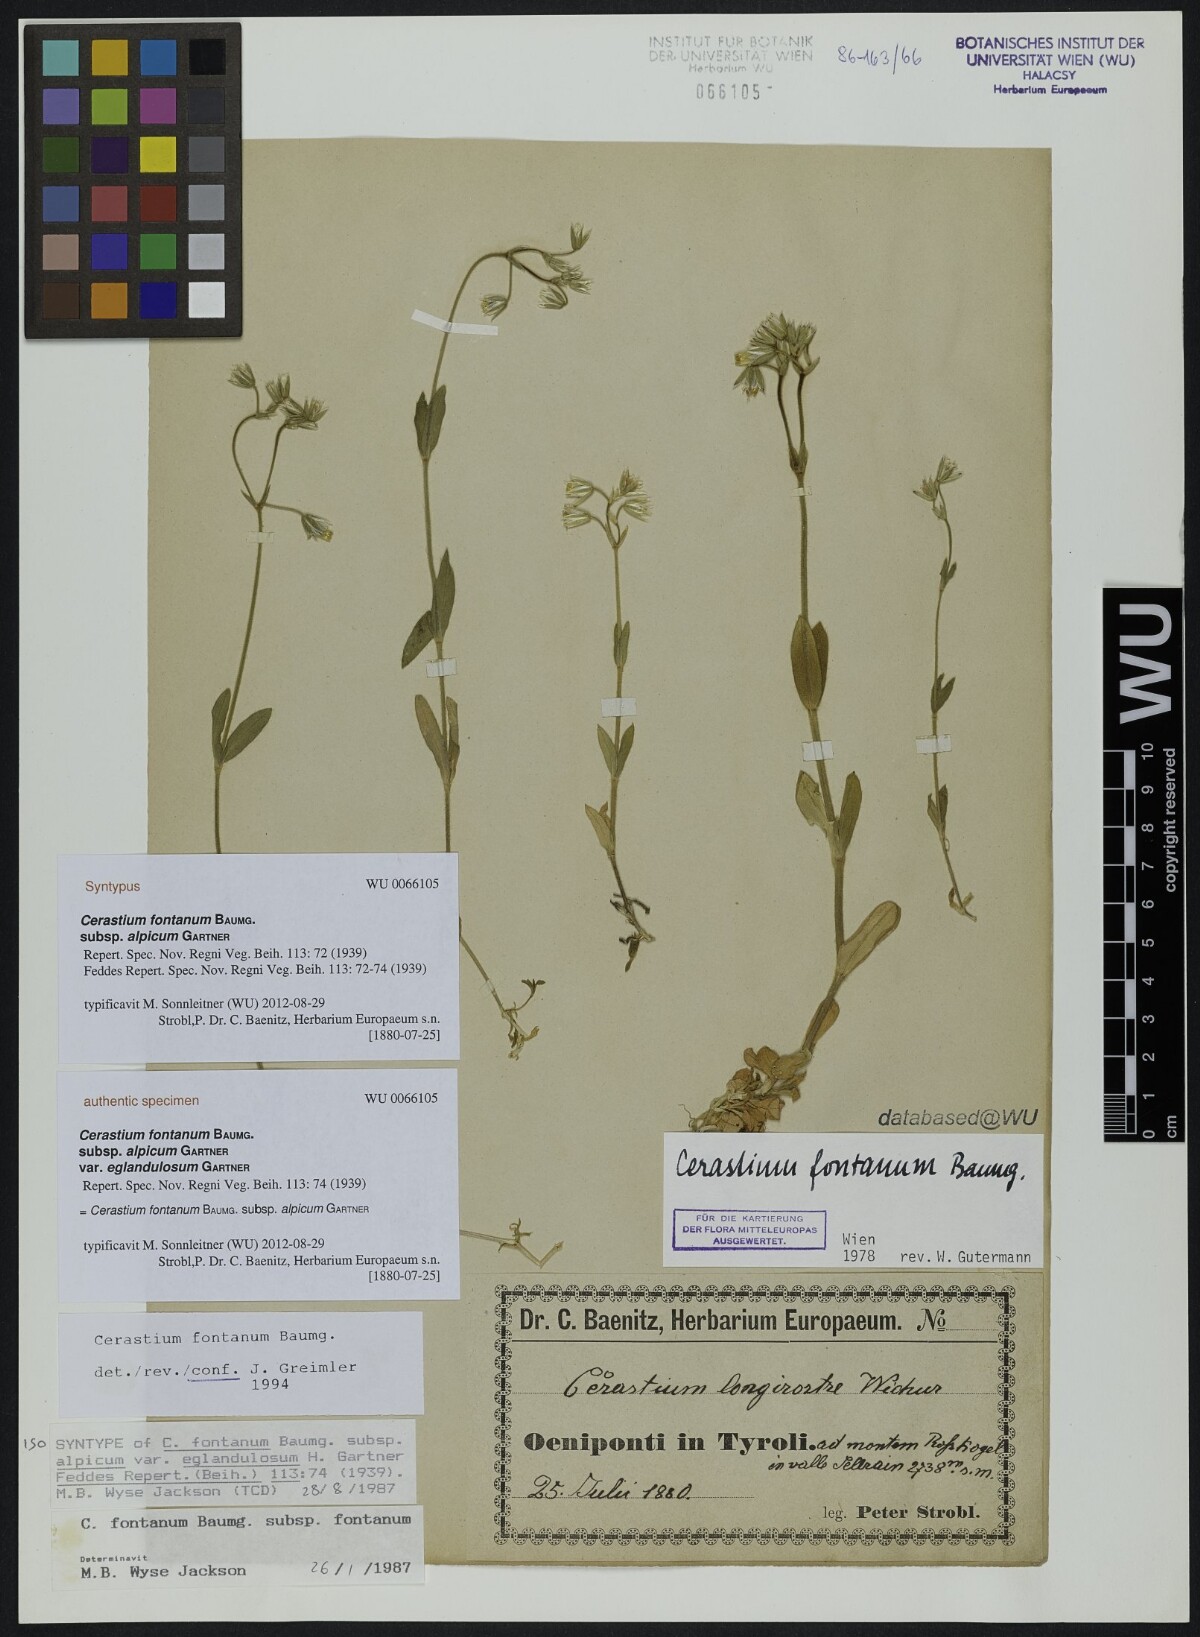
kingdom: Plantae
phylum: Tracheophyta
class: Magnoliopsida
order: Caryophyllales
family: Caryophyllaceae
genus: Cerastium
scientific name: Cerastium fontanum
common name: Common mouse-ear
